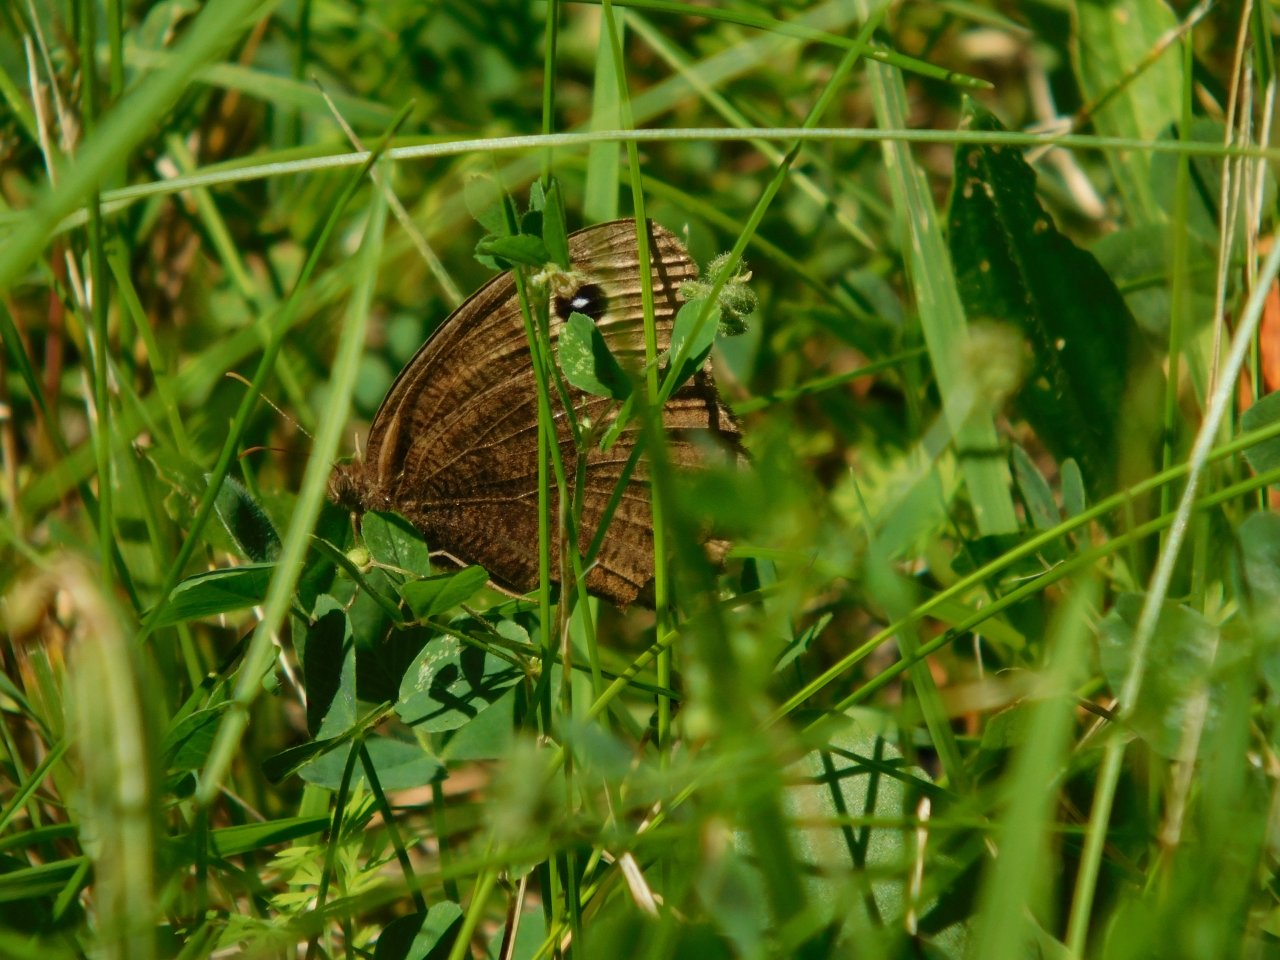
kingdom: Animalia
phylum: Arthropoda
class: Insecta
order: Lepidoptera
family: Nymphalidae
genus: Cercyonis
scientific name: Cercyonis pegala
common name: Common Wood-Nymph
